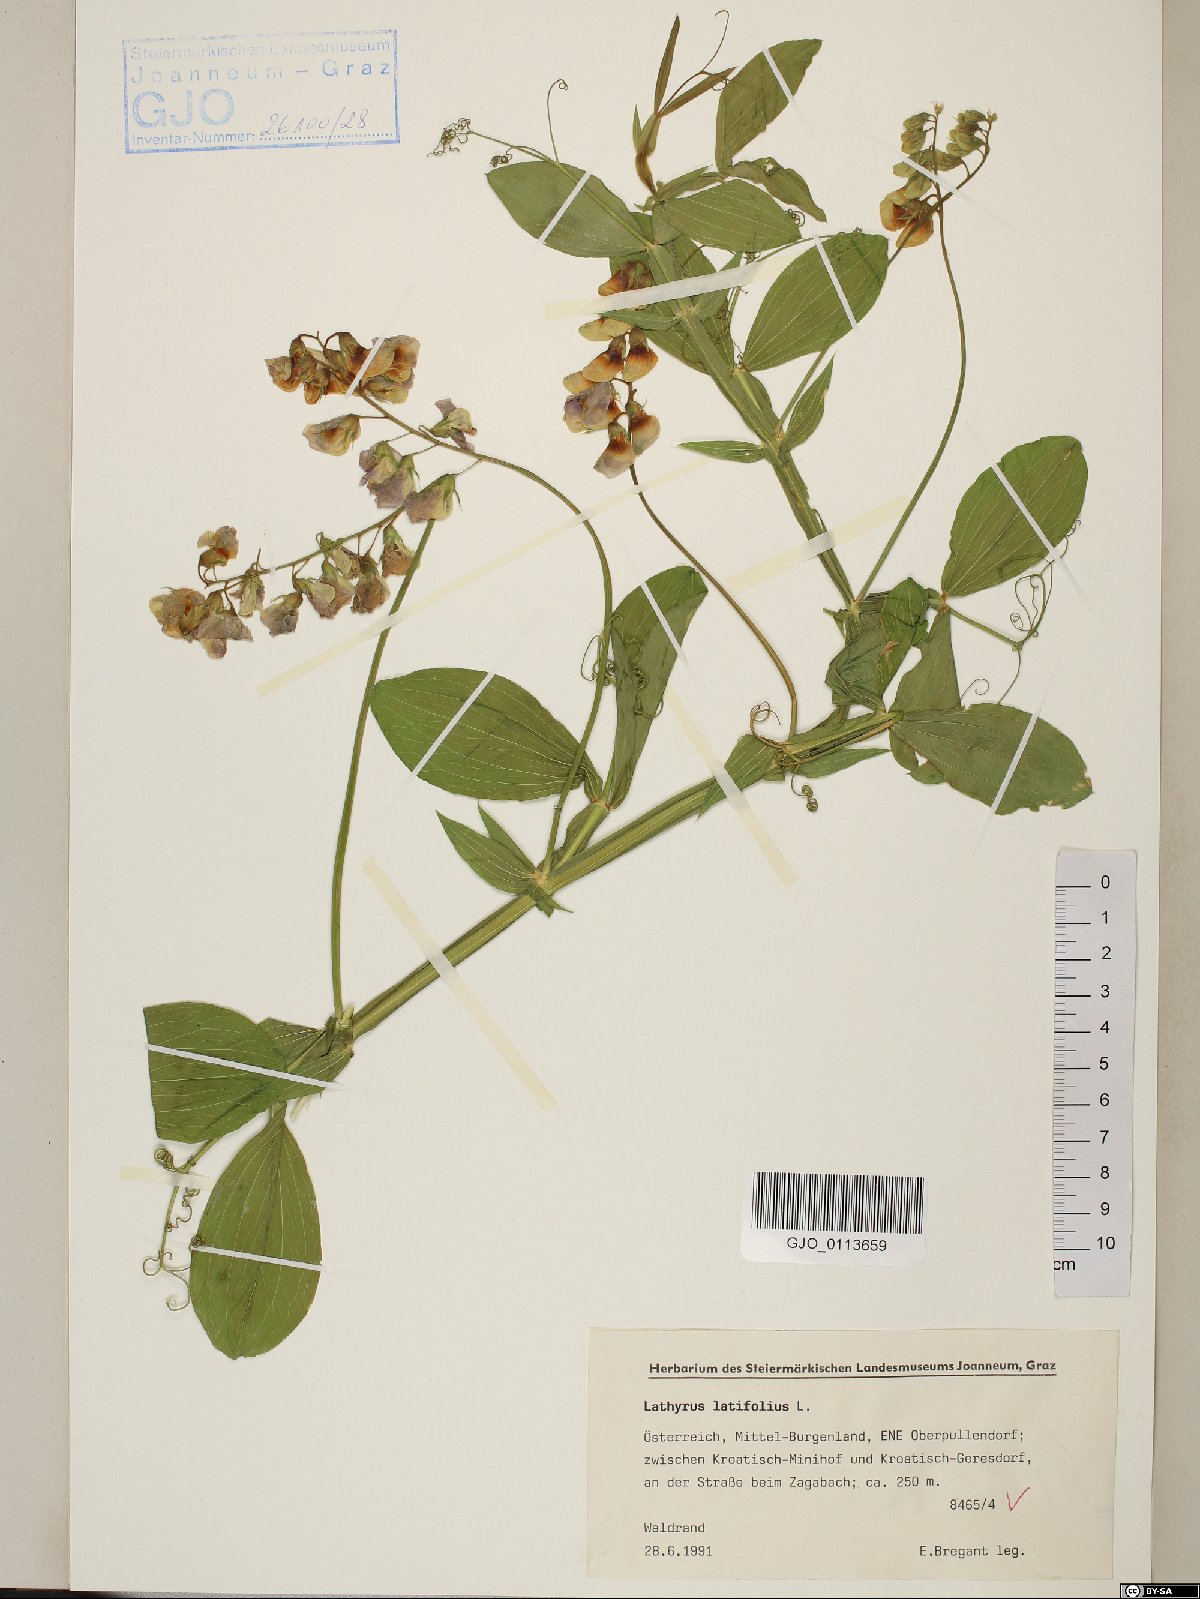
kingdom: Plantae
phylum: Tracheophyta
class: Magnoliopsida
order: Fabales
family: Fabaceae
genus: Lathyrus
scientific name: Lathyrus latifolius
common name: Perennial pea
